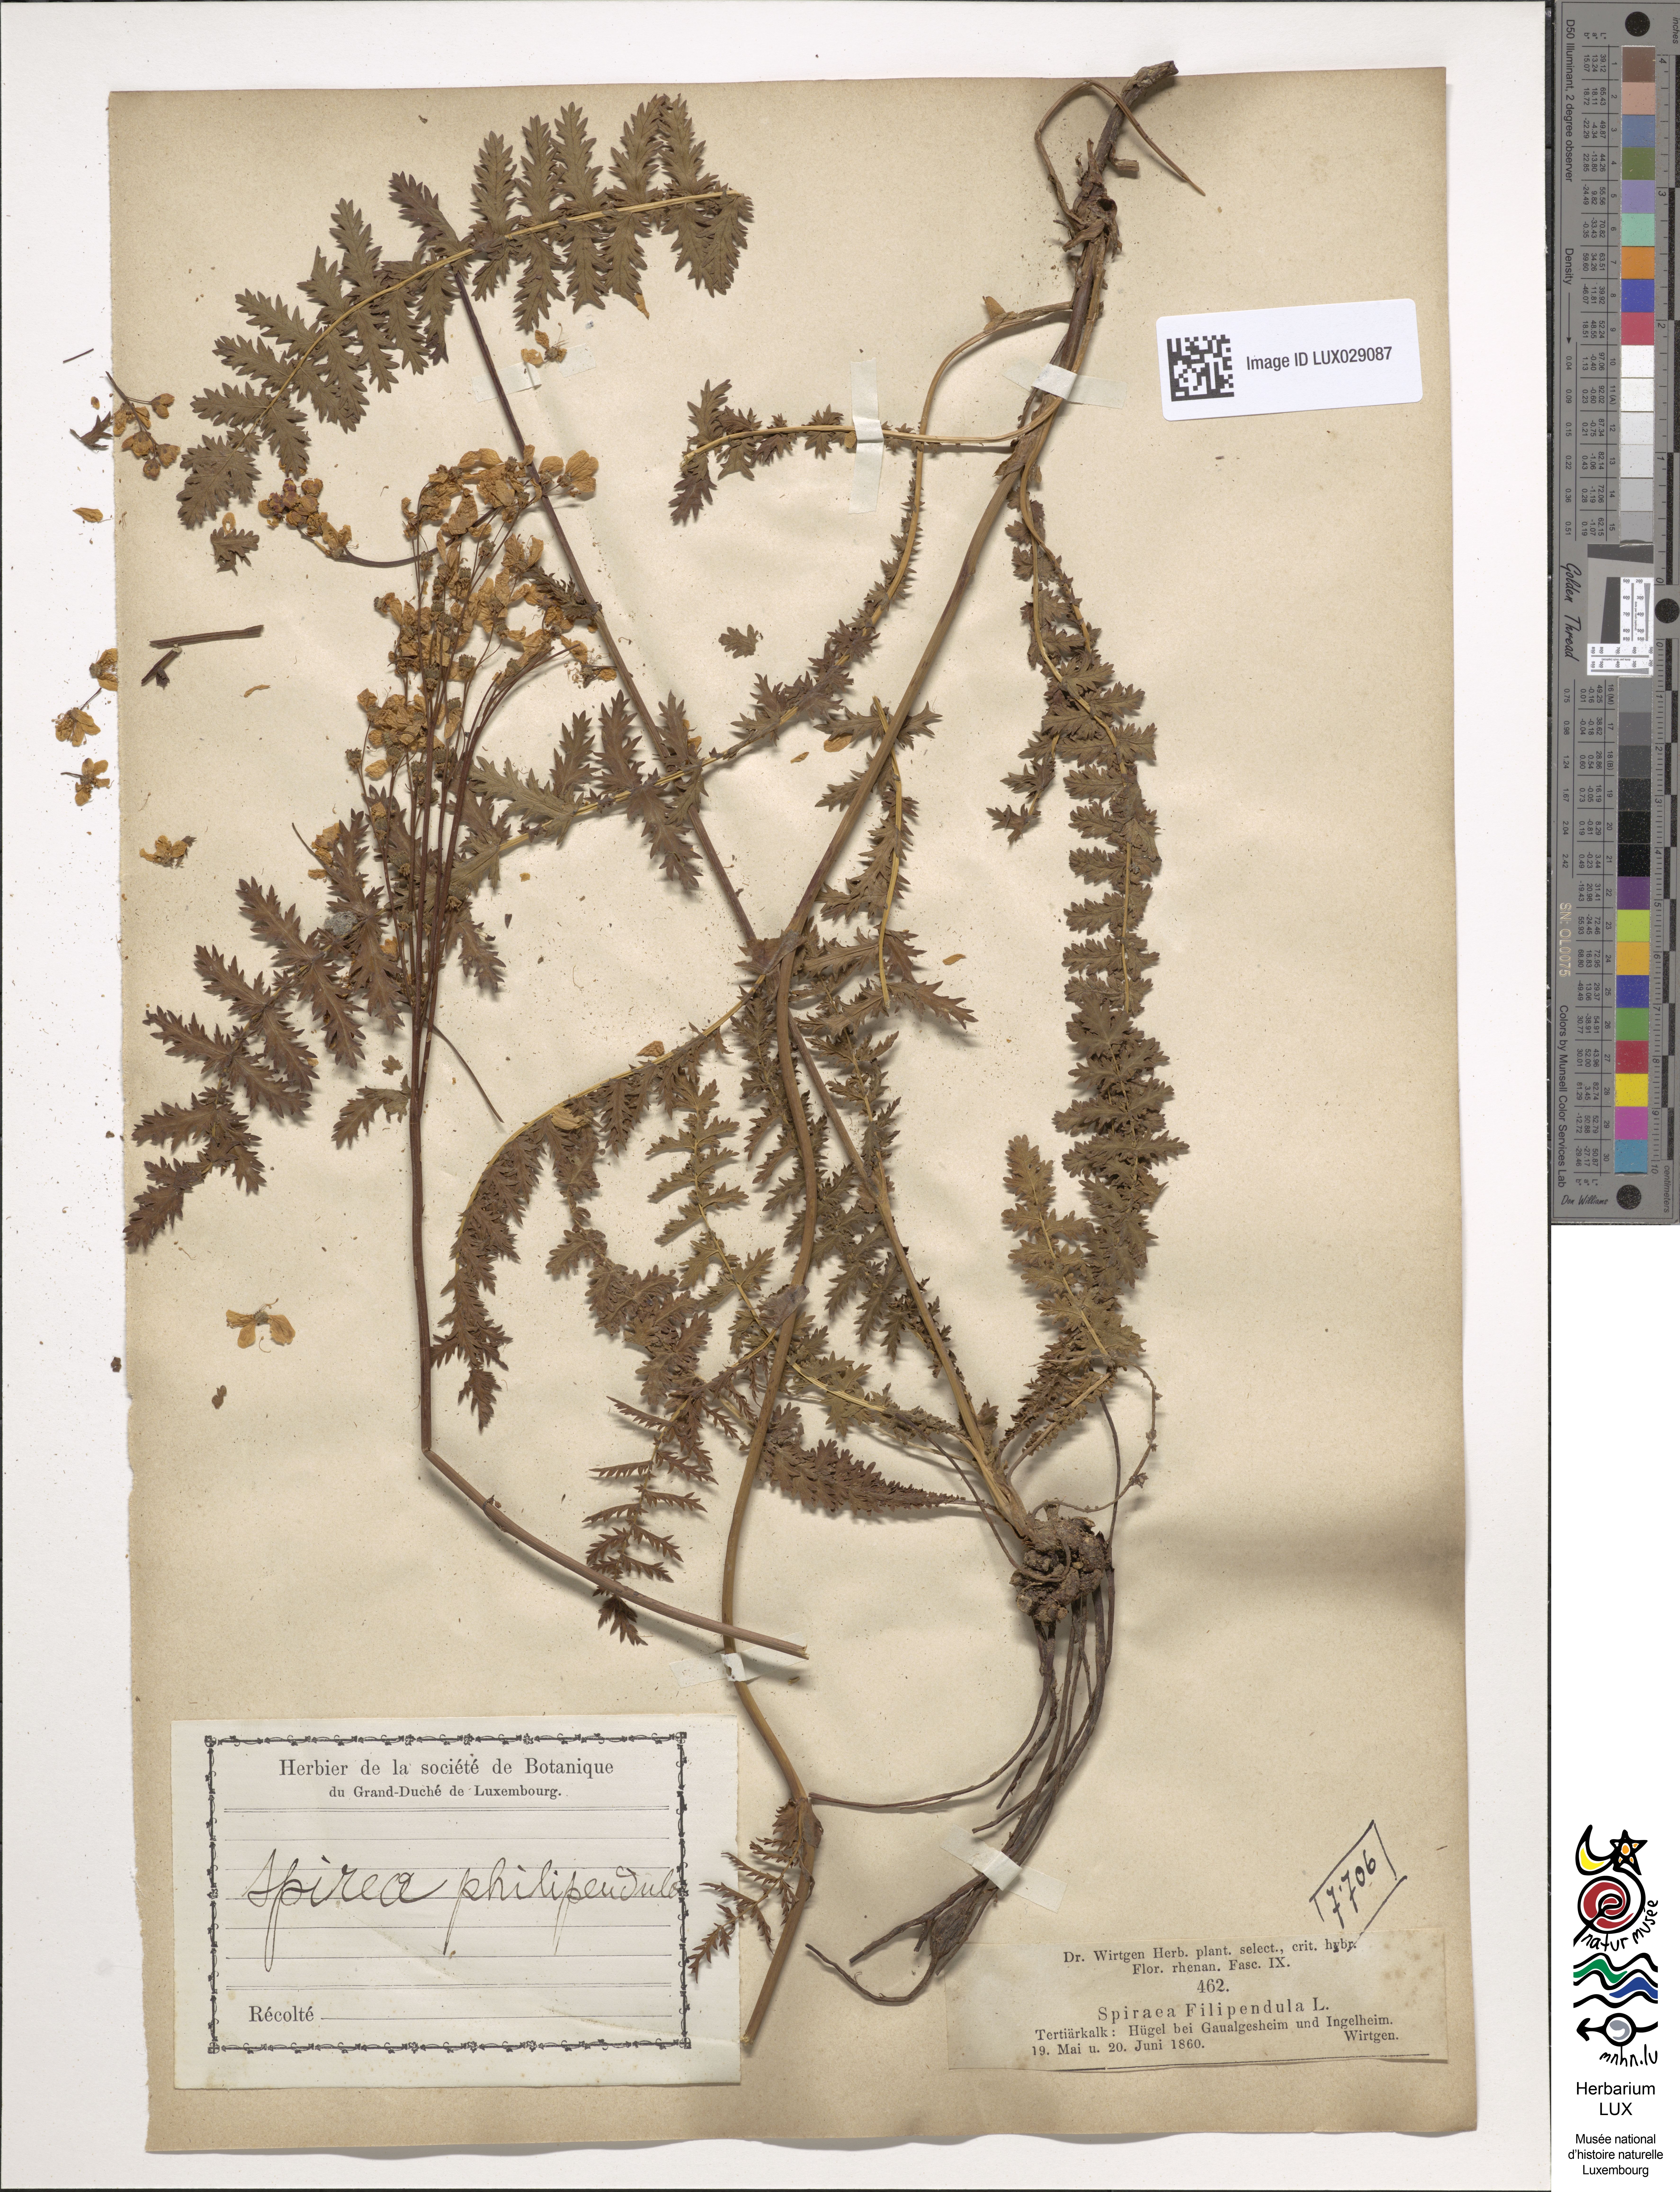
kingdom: Plantae
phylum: Tracheophyta
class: Magnoliopsida
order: Rosales
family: Rosaceae
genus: Filipendula
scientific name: Filipendula ulmaria
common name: Meadowsweet
